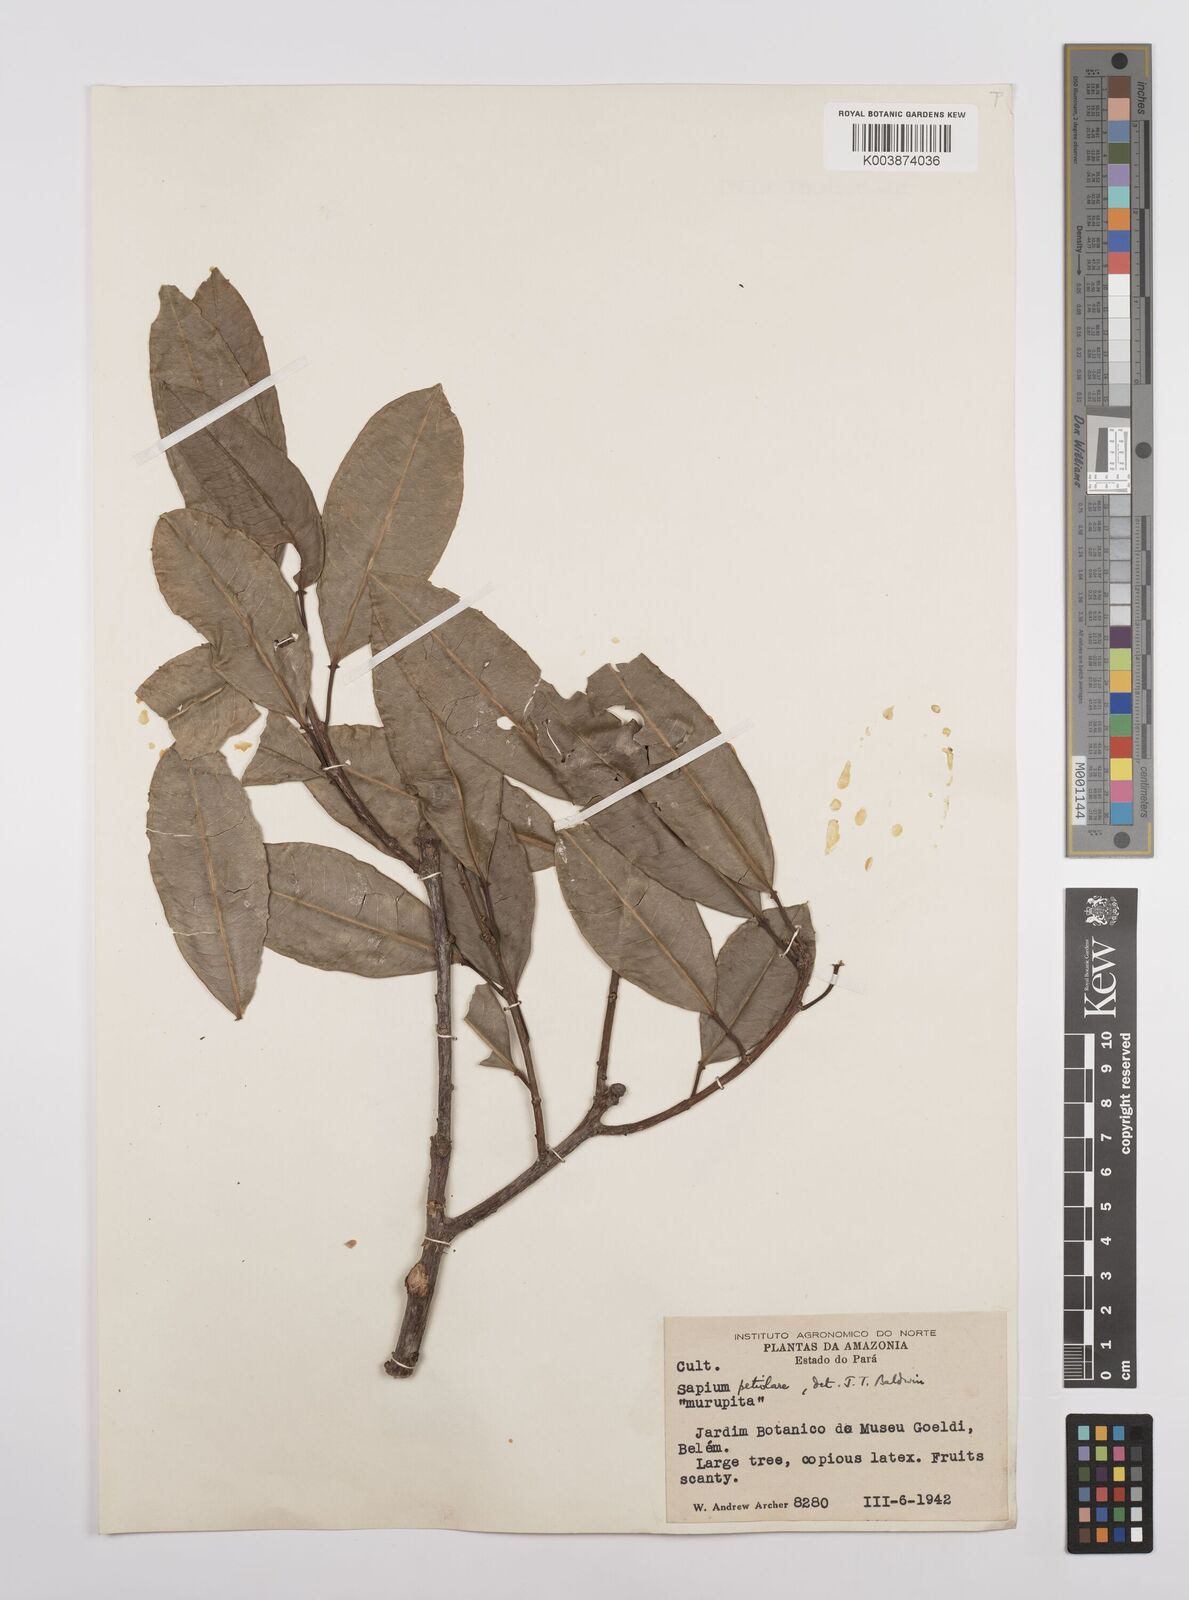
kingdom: Plantae
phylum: Tracheophyta
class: Magnoliopsida
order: Malpighiales
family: Euphorbiaceae
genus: Sapium
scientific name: Sapium glandulosum
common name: Milktree
